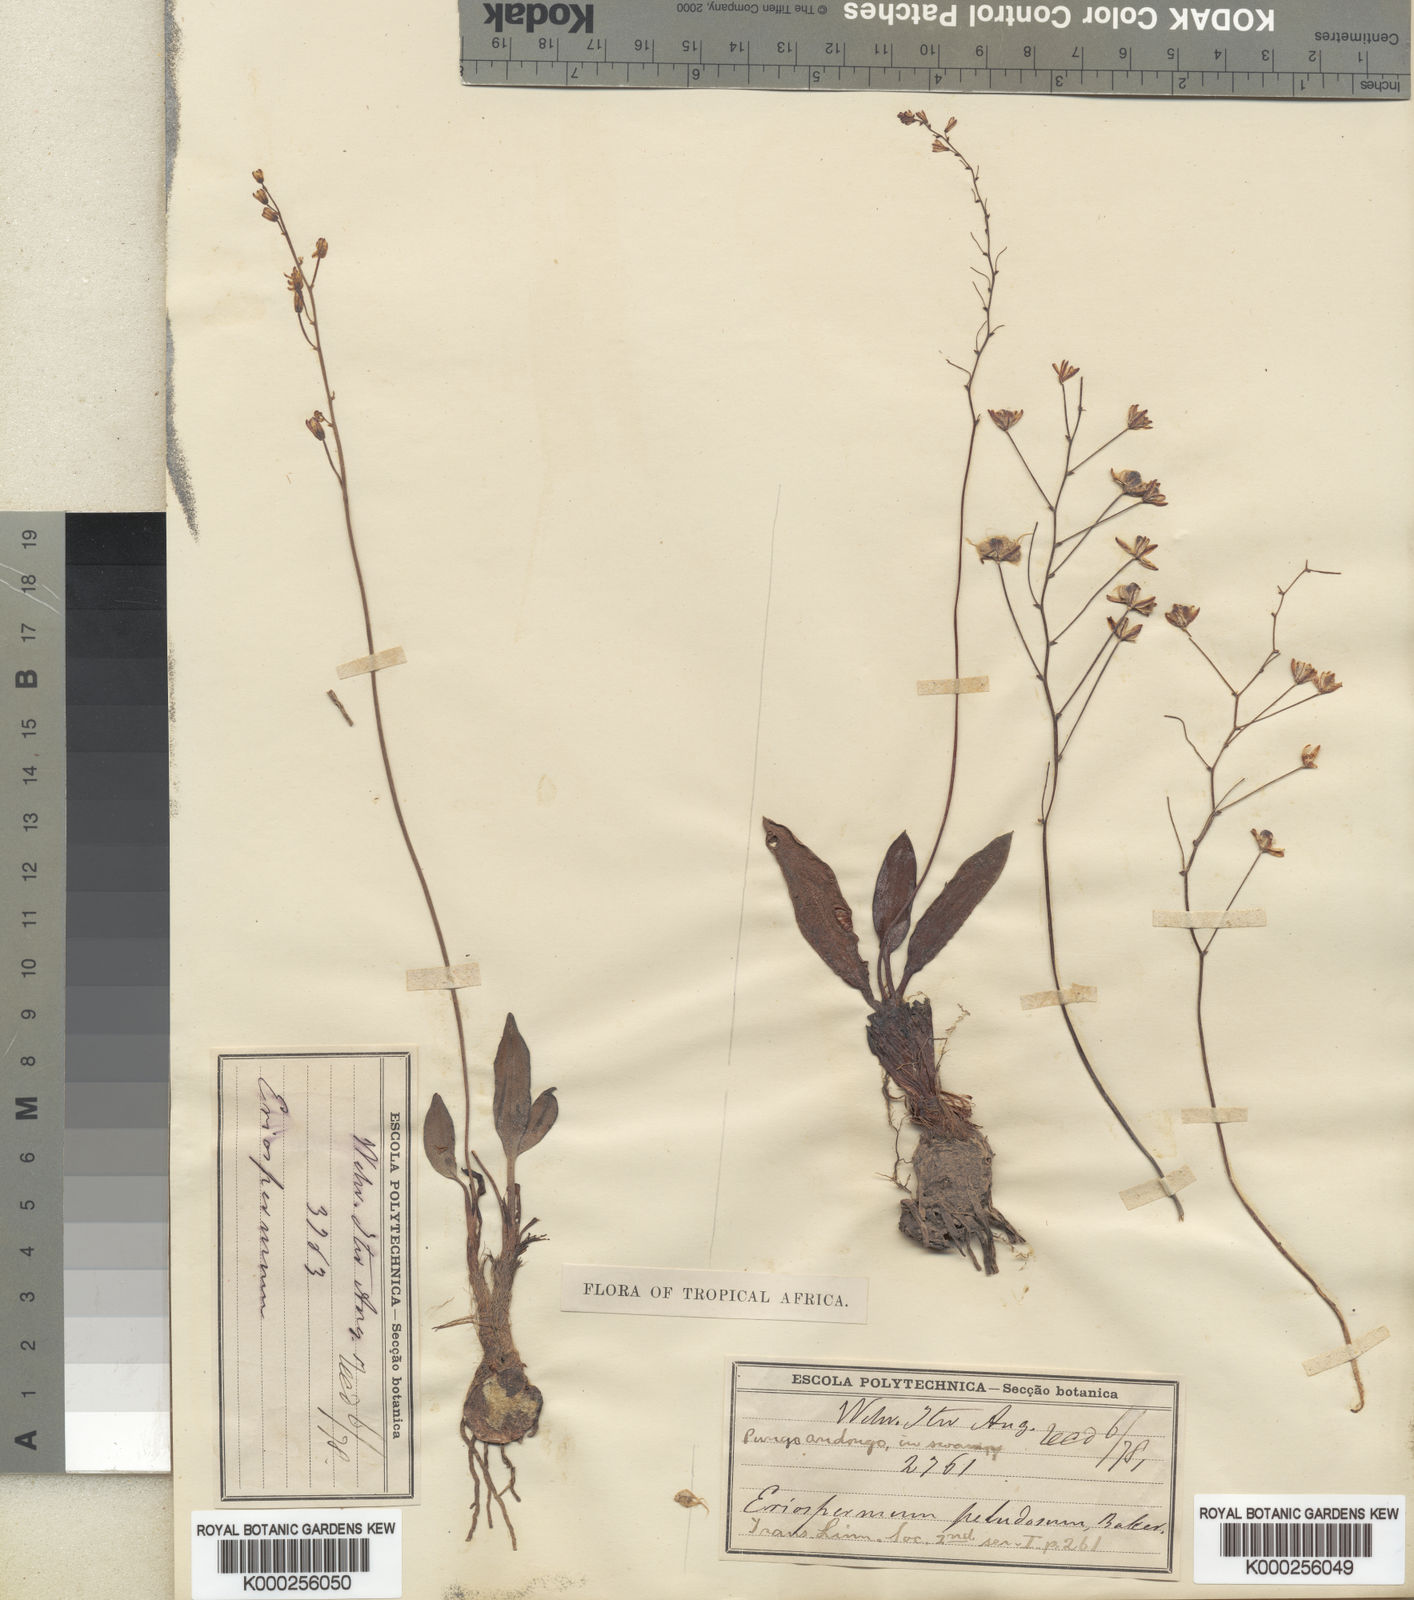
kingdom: Plantae
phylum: Tracheophyta
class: Liliopsida
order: Asparagales
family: Asparagaceae
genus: Eriospermum
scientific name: Eriospermum paludosum
